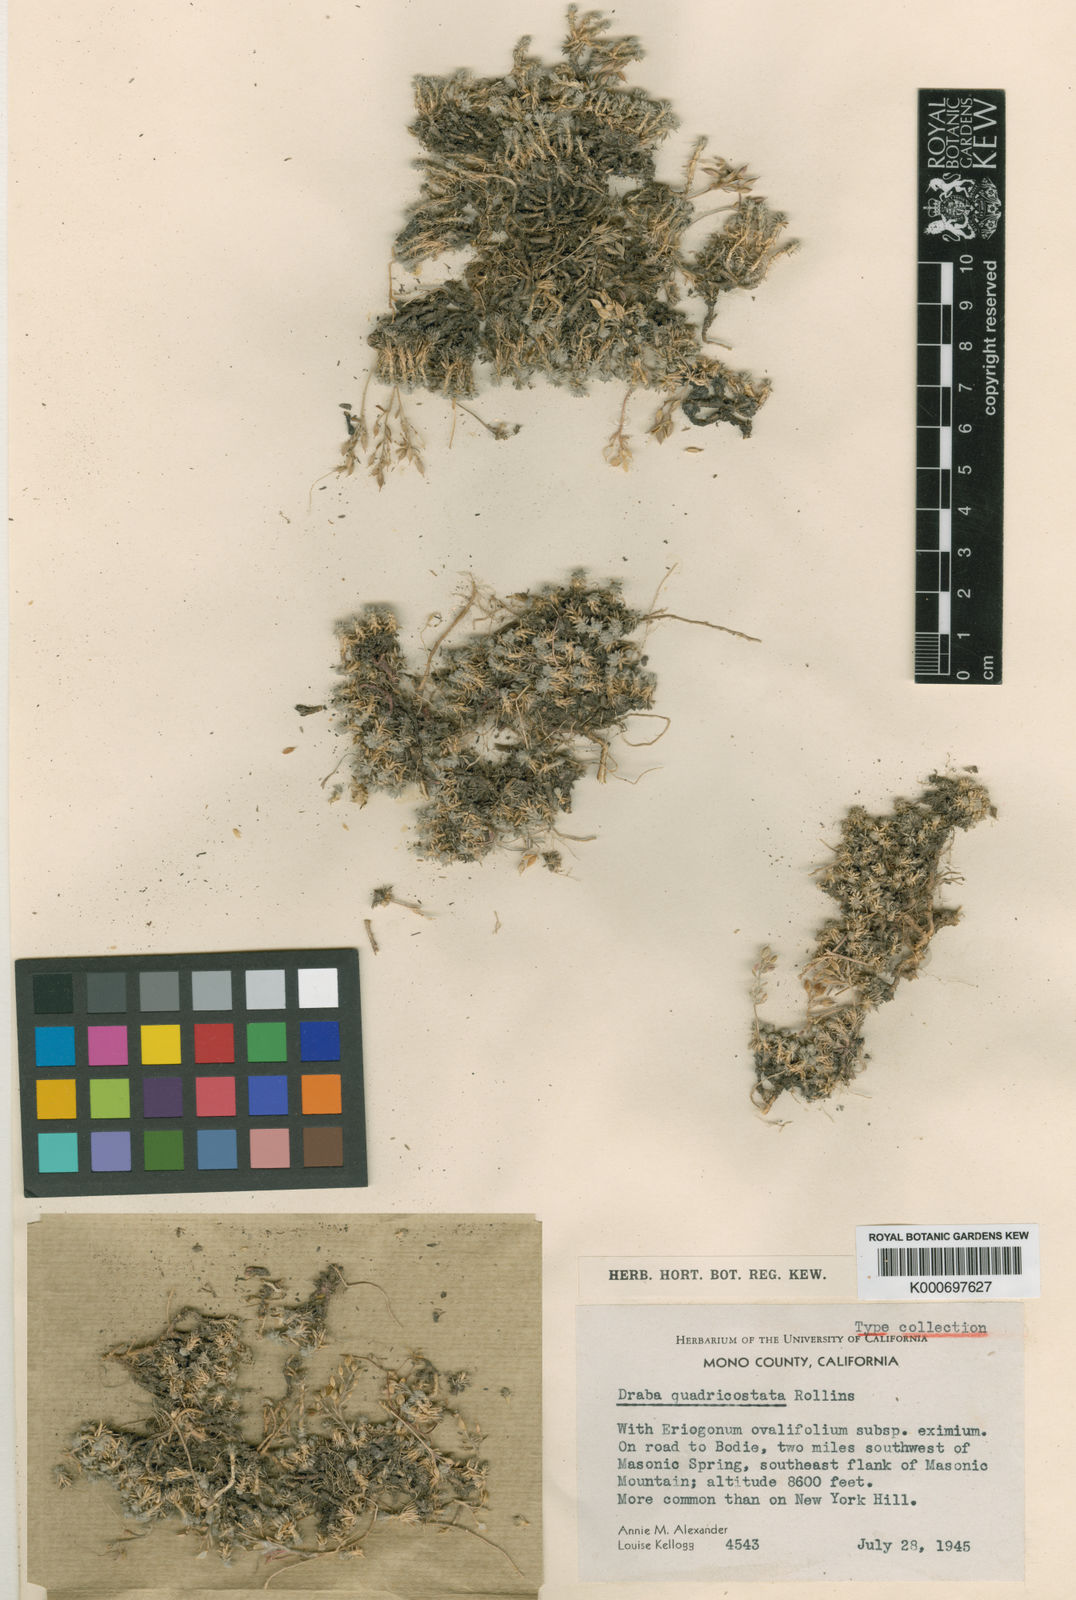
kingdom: Plantae
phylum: Tracheophyta
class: Magnoliopsida
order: Brassicales
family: Brassicaceae
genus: Cusickiella
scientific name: Cusickiella quadricostata
